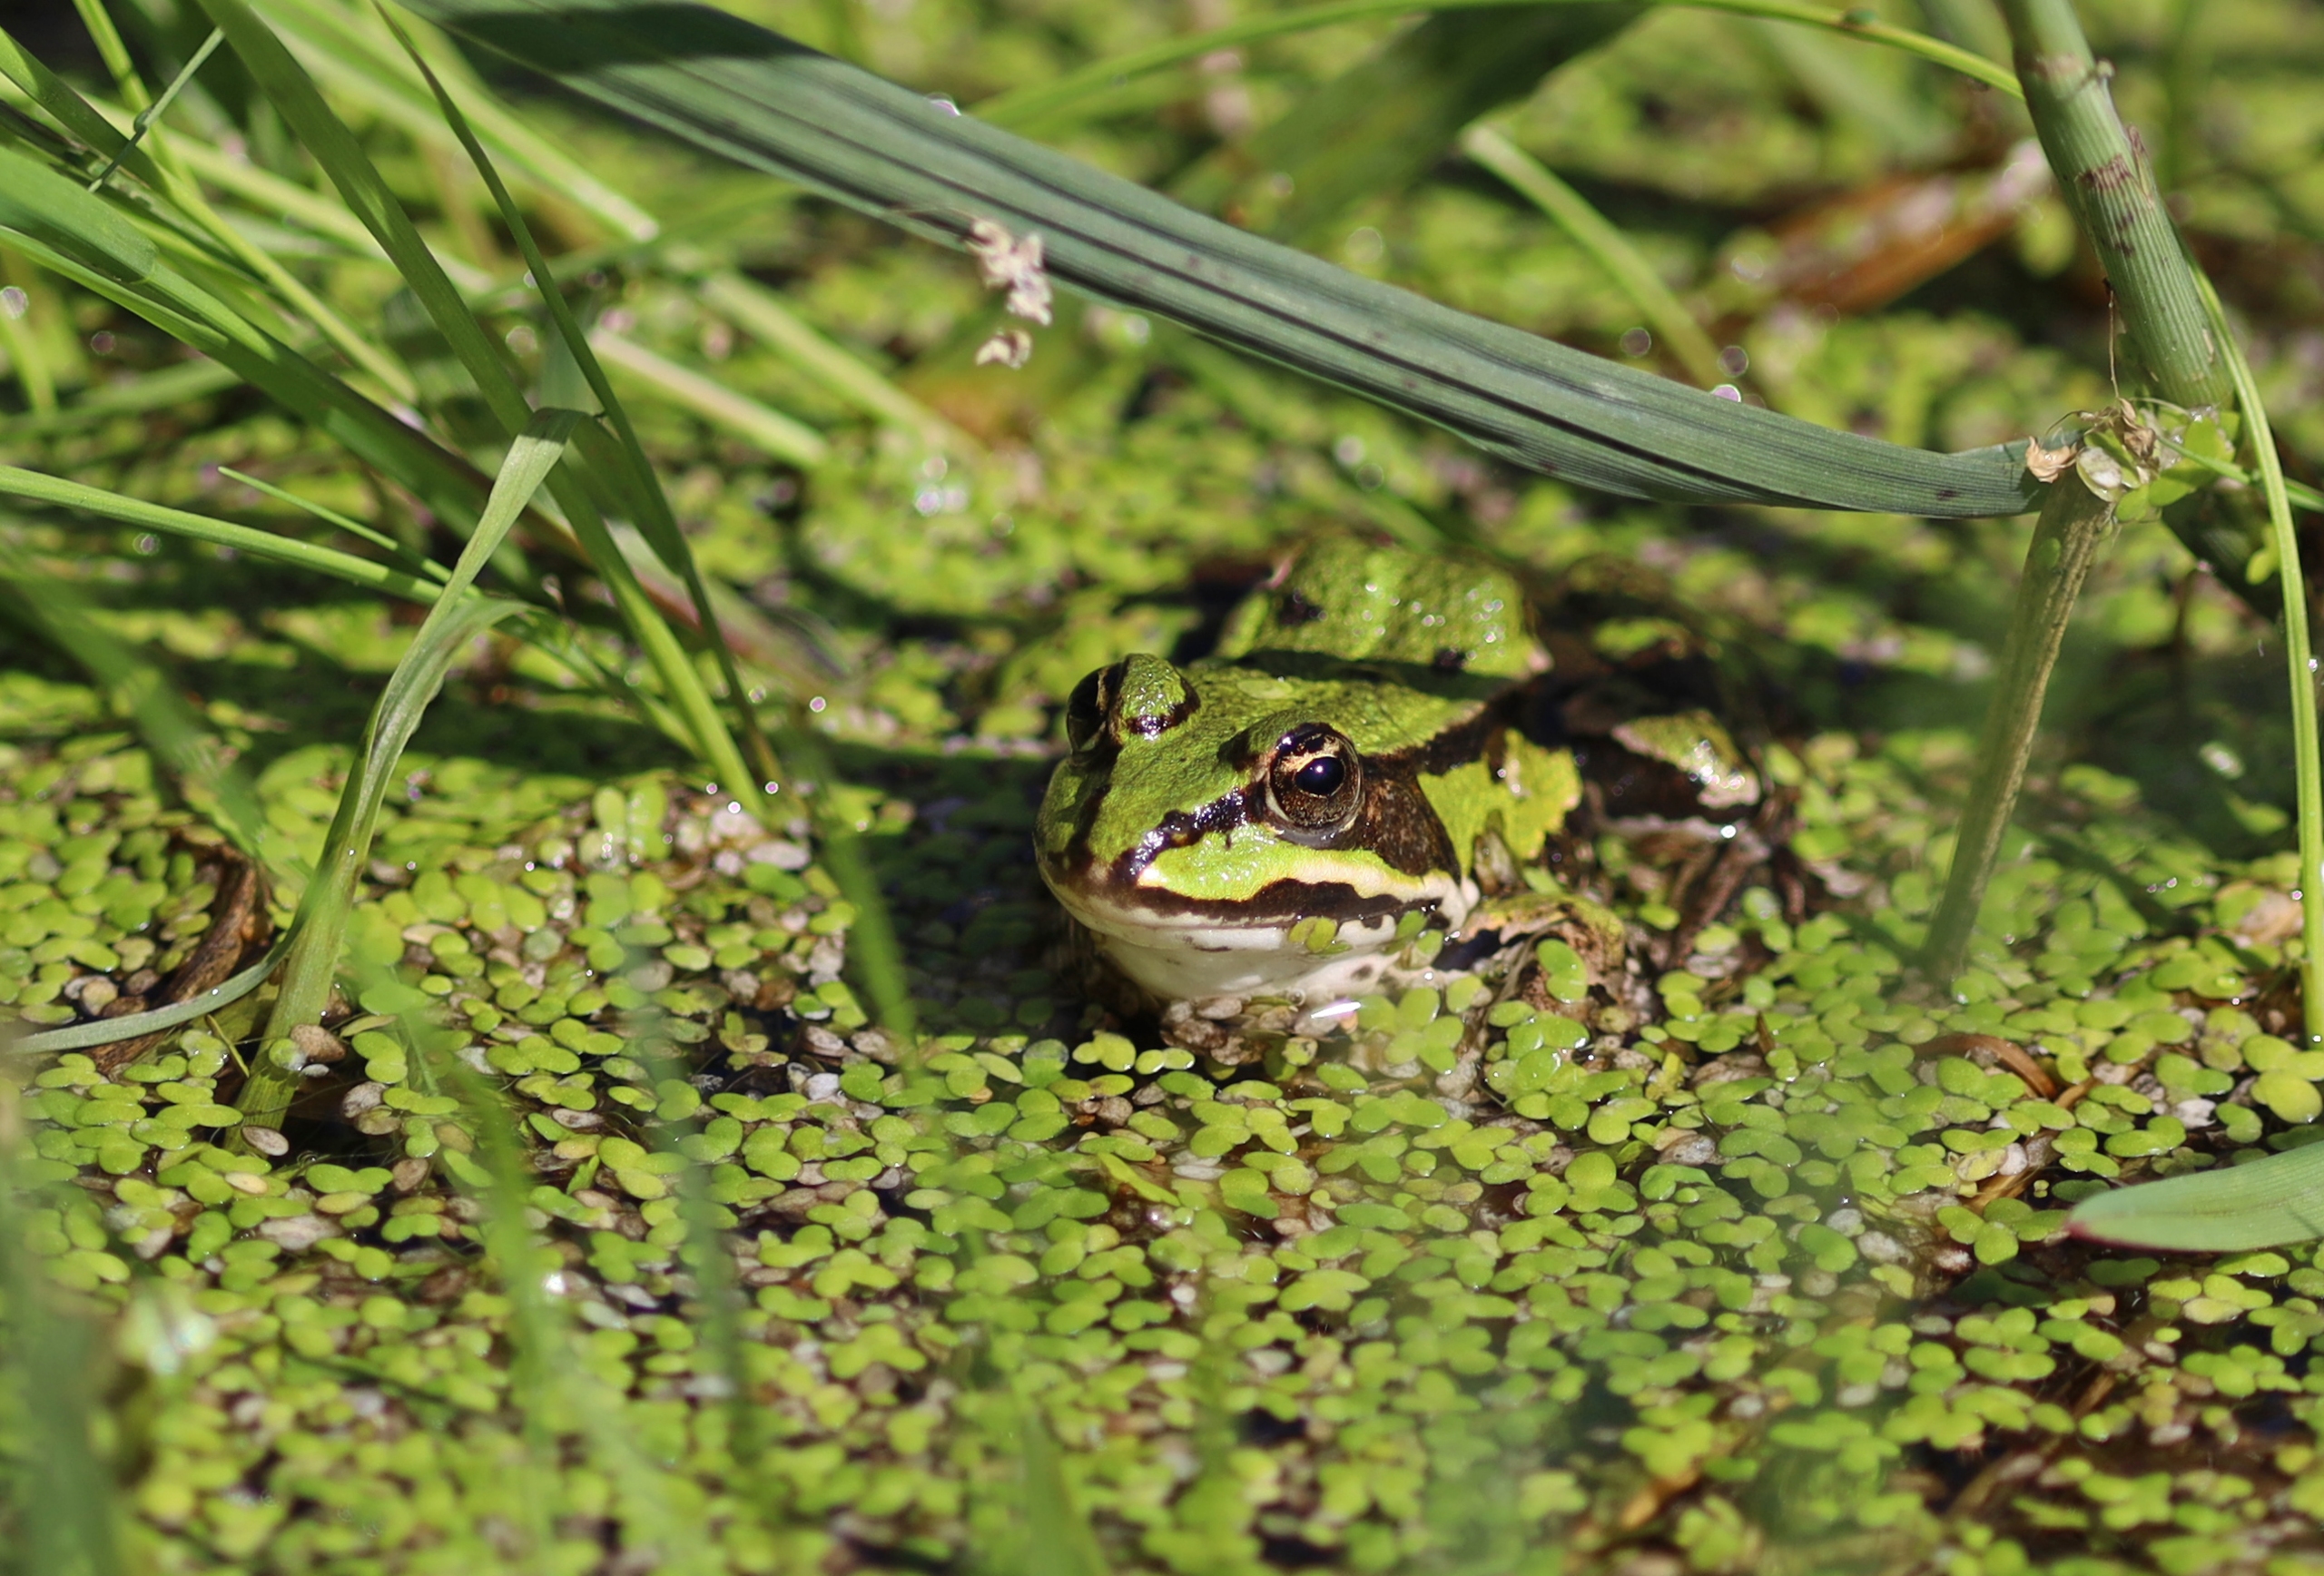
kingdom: Animalia
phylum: Chordata
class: Amphibia
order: Anura
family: Ranidae
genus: Pelophylax
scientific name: Pelophylax lessonae
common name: Grøn frø
